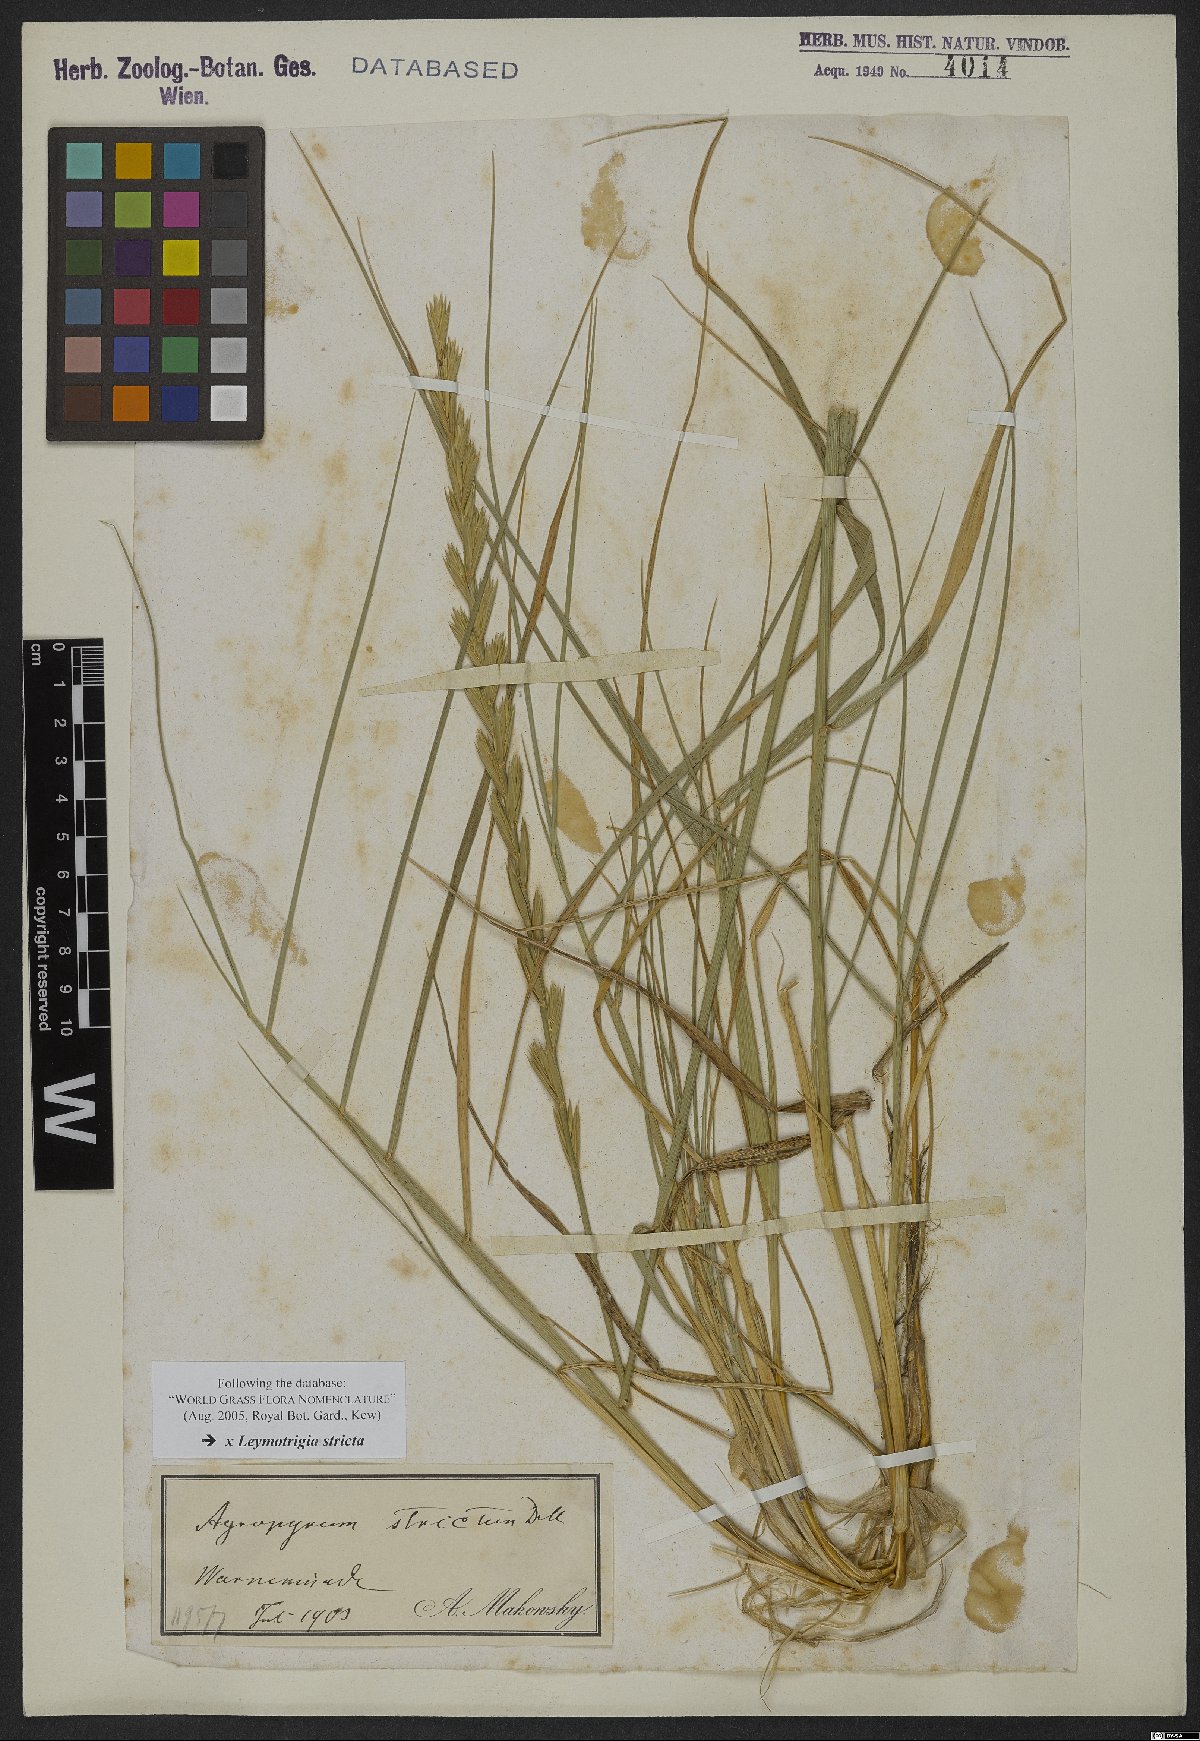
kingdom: Plantae
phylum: Tracheophyta
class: Liliopsida
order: Poales
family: Poaceae
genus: Elyleymus
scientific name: Elyleymus strictus
